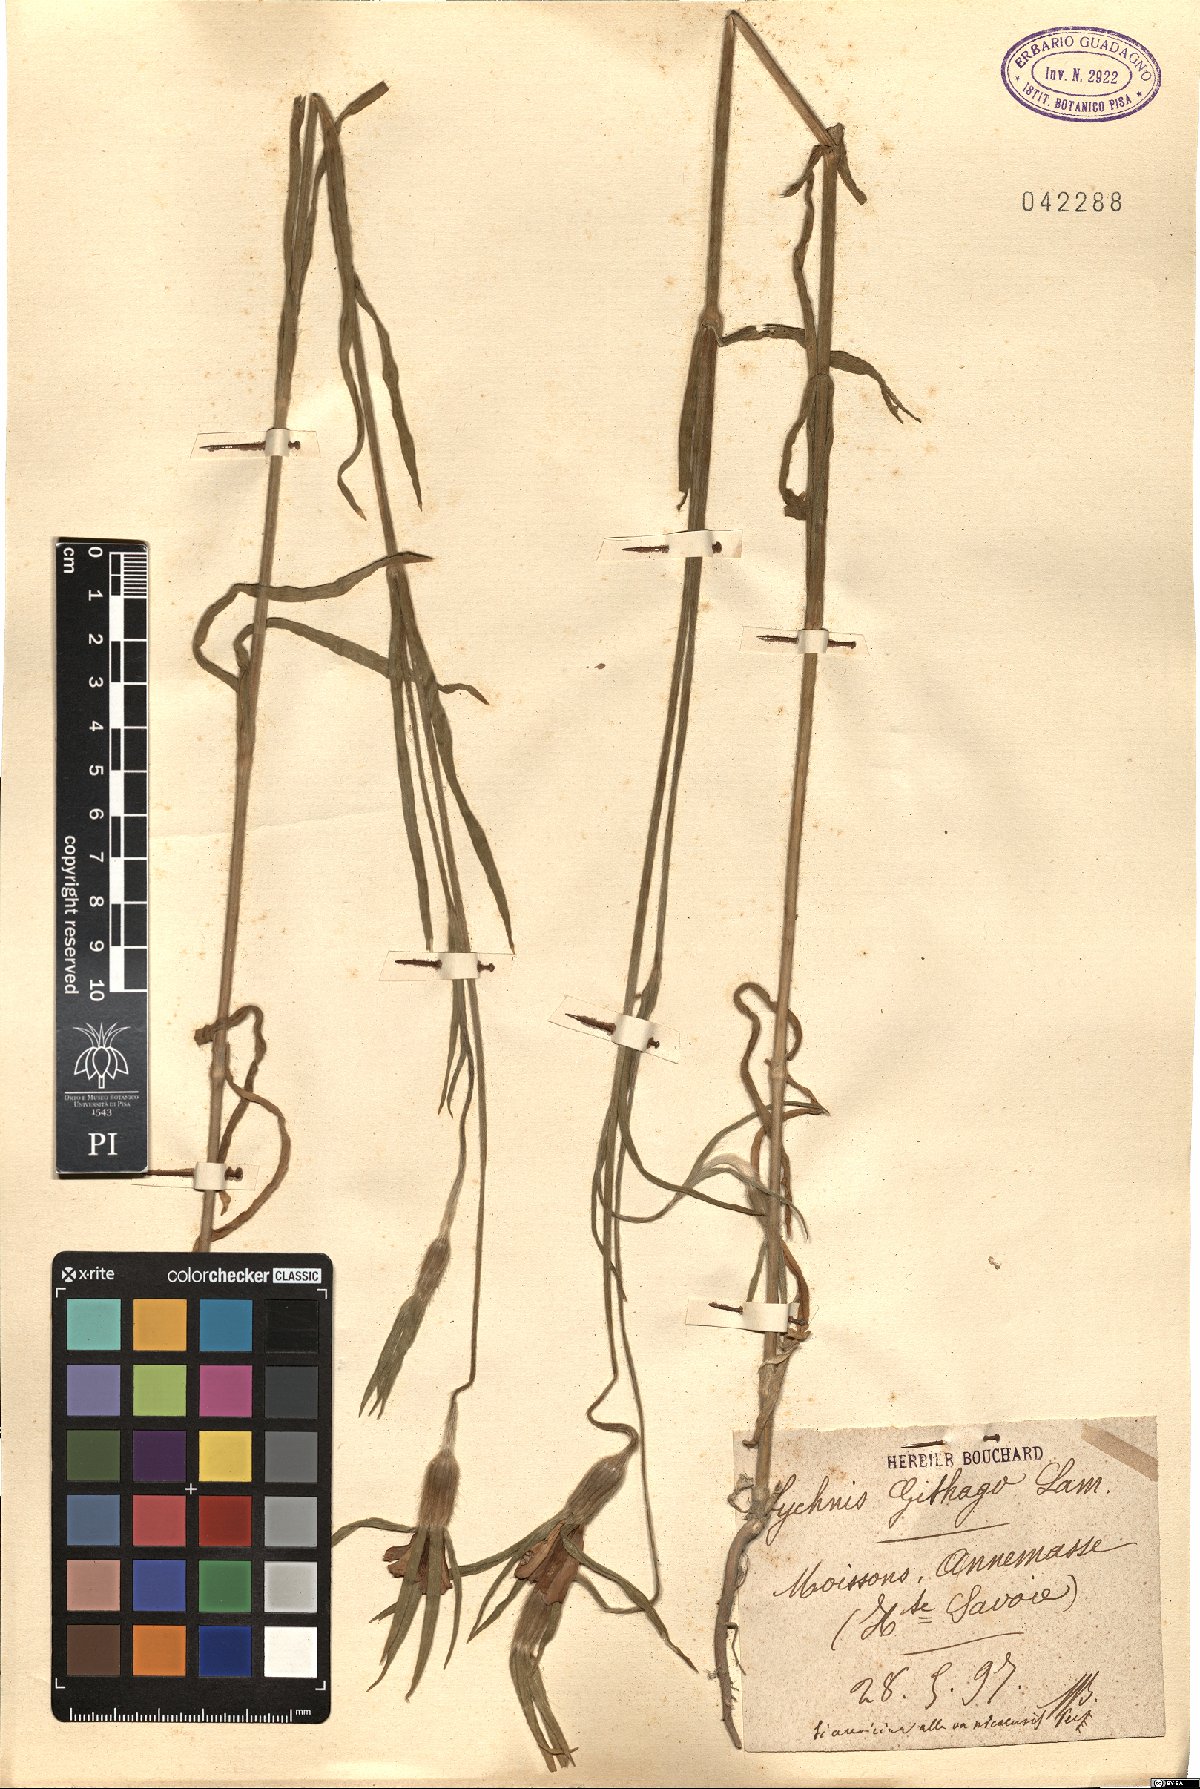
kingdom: Plantae
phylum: Tracheophyta
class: Magnoliopsida
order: Caryophyllales
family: Caryophyllaceae
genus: Agrostemma
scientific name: Agrostemma githago
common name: Common corncockle
